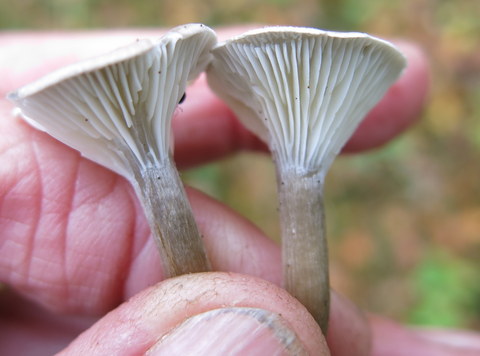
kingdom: Fungi
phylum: Basidiomycota
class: Agaricomycetes
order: Agaricales
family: Hygrophoraceae
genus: Ampulloclitocybe
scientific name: Ampulloclitocybe clavipes
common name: køllefod
